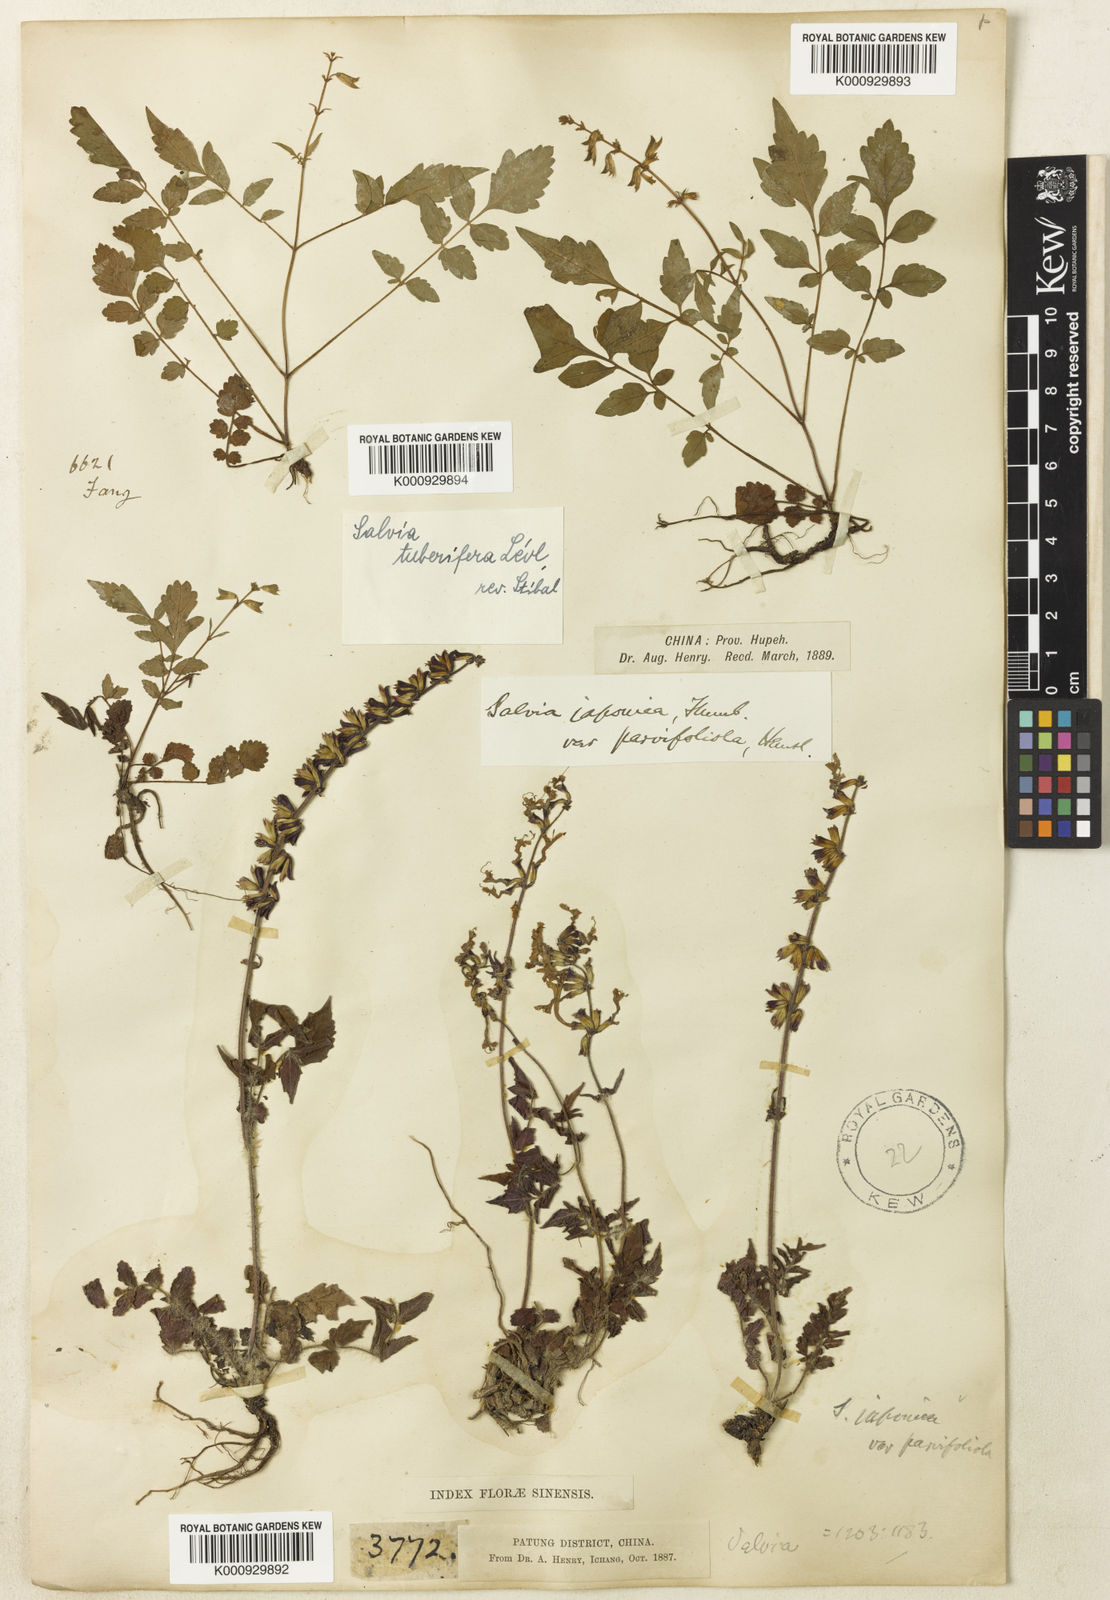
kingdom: Plantae
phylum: Tracheophyta
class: Magnoliopsida
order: Lamiales
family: Lamiaceae
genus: Salvia
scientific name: Salvia
